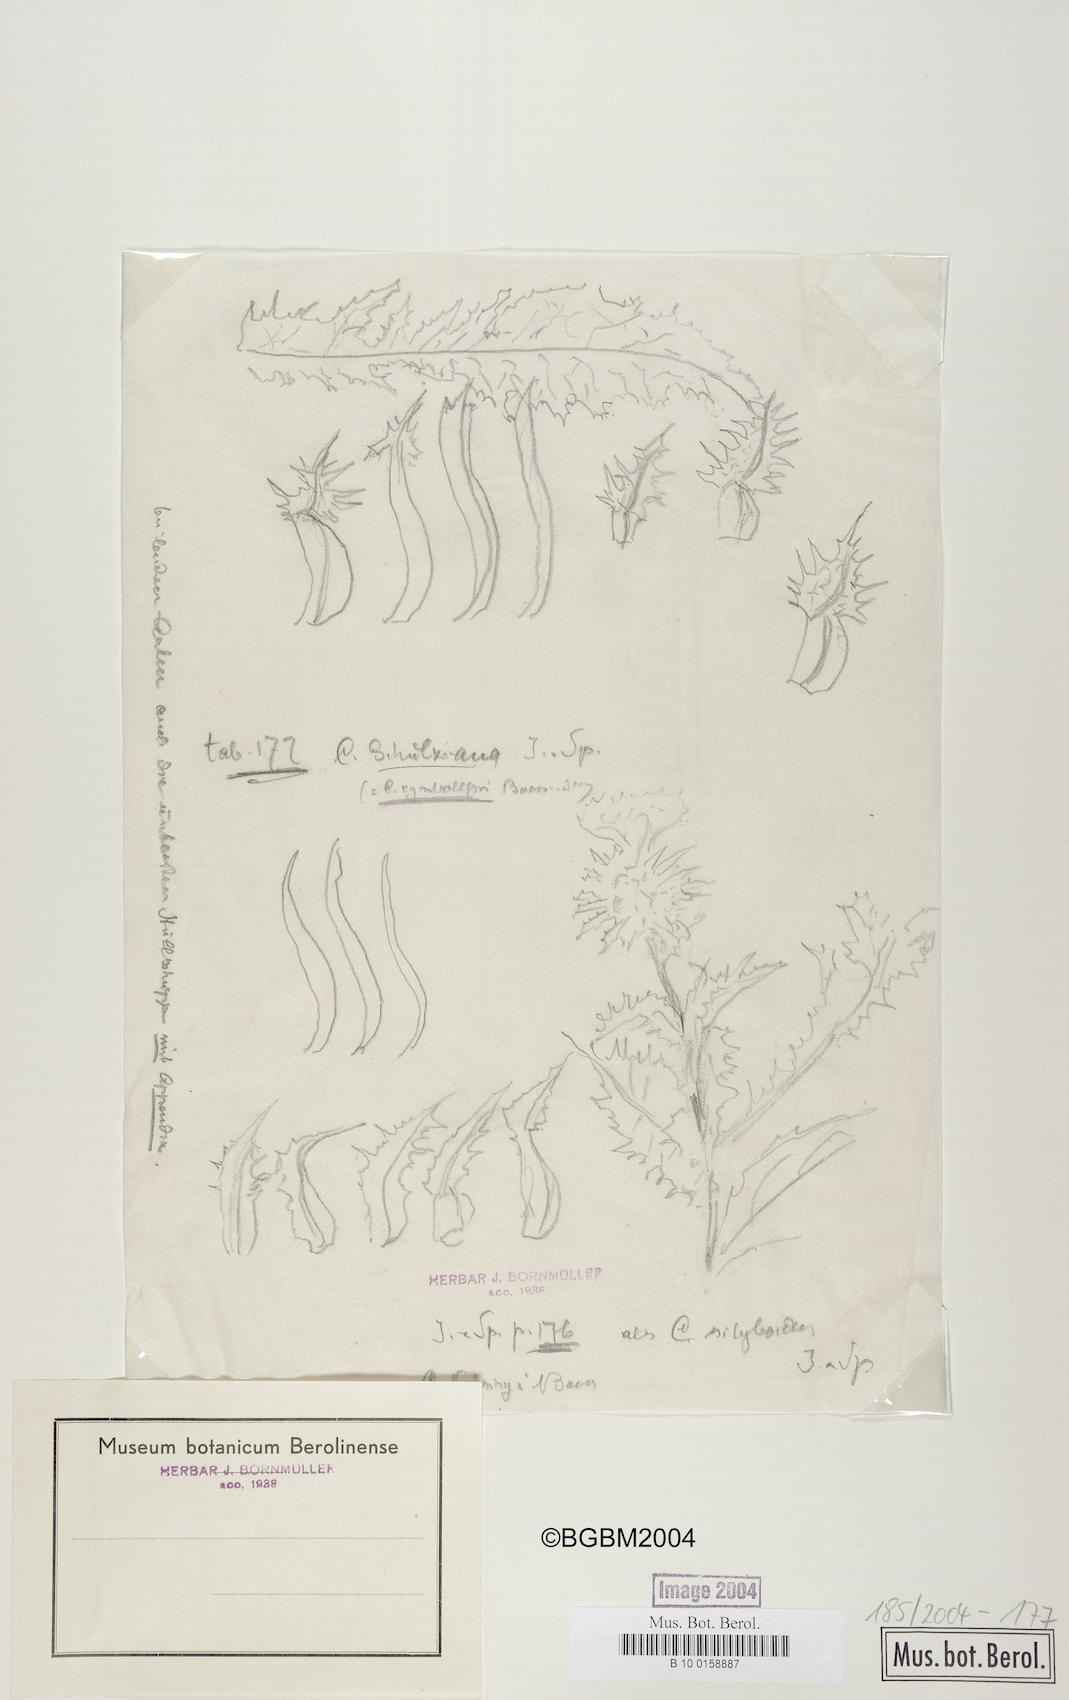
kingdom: Plantae
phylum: Tracheophyta
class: Magnoliopsida
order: Asterales
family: Asteraceae
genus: Cousinia
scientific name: Cousinia kotschyi
